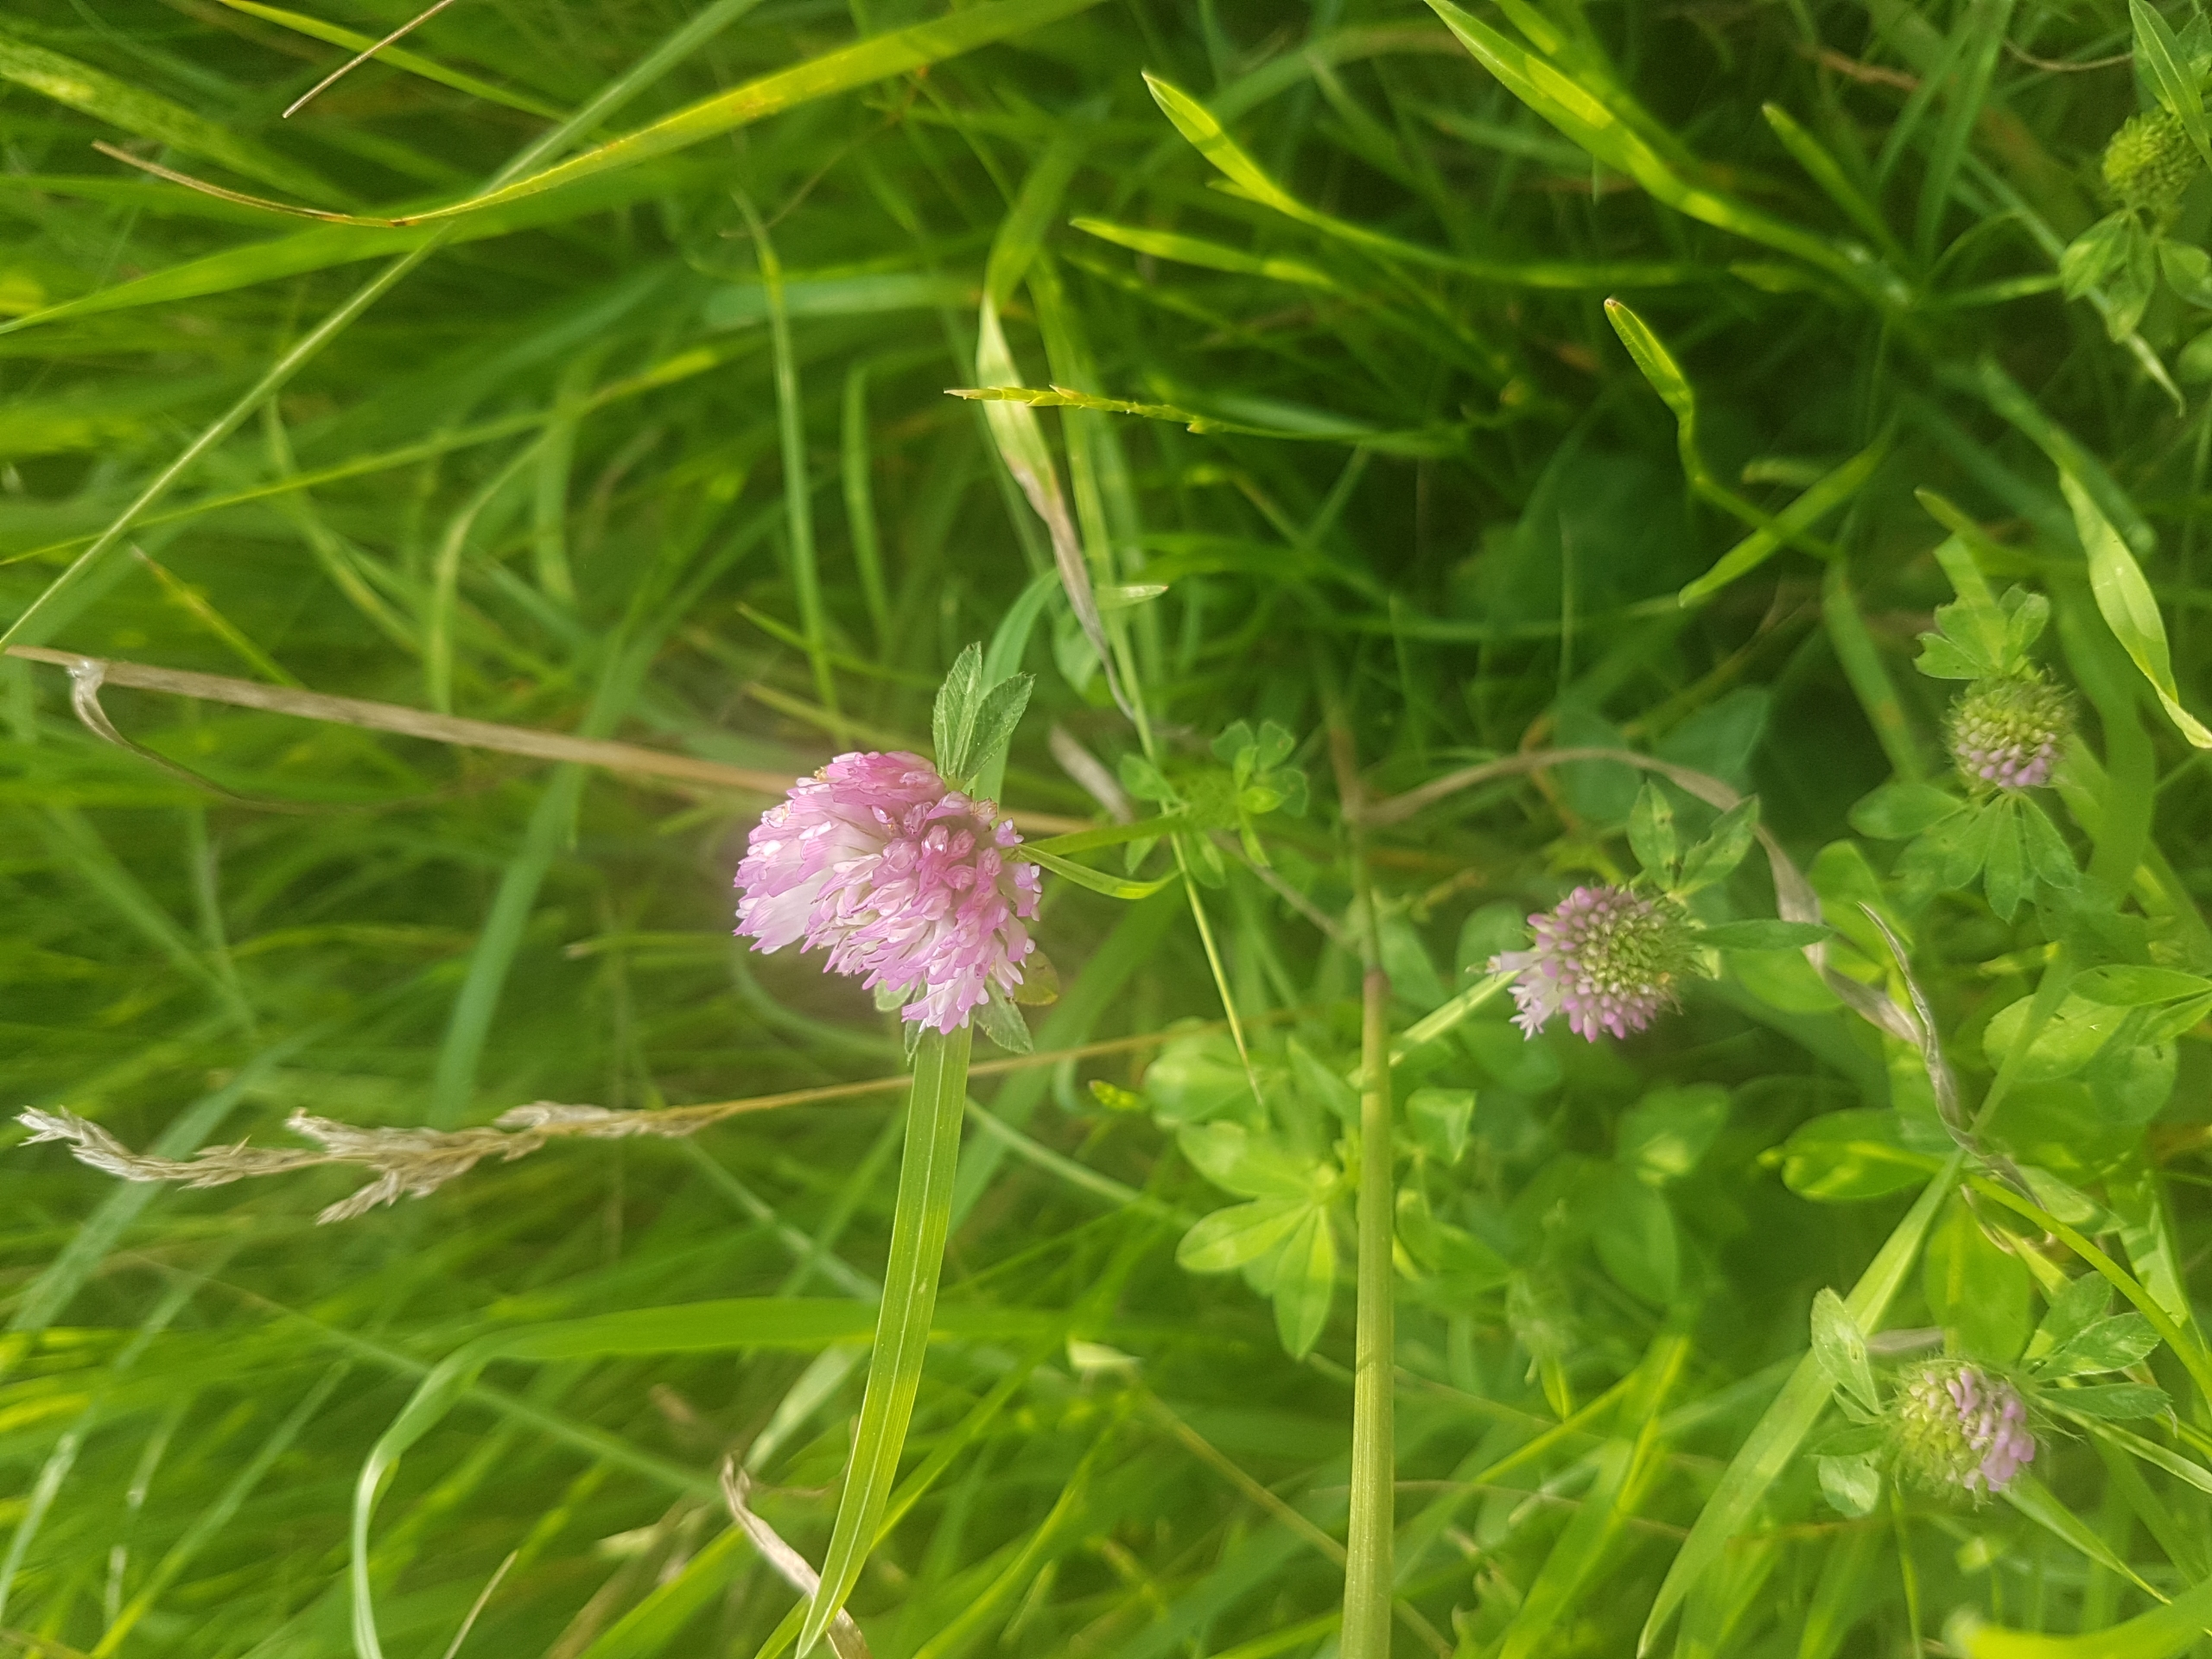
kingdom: Plantae
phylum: Tracheophyta
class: Magnoliopsida
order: Fabales
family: Fabaceae
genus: Trifolium
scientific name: Trifolium pratense
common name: Rød-kløver
